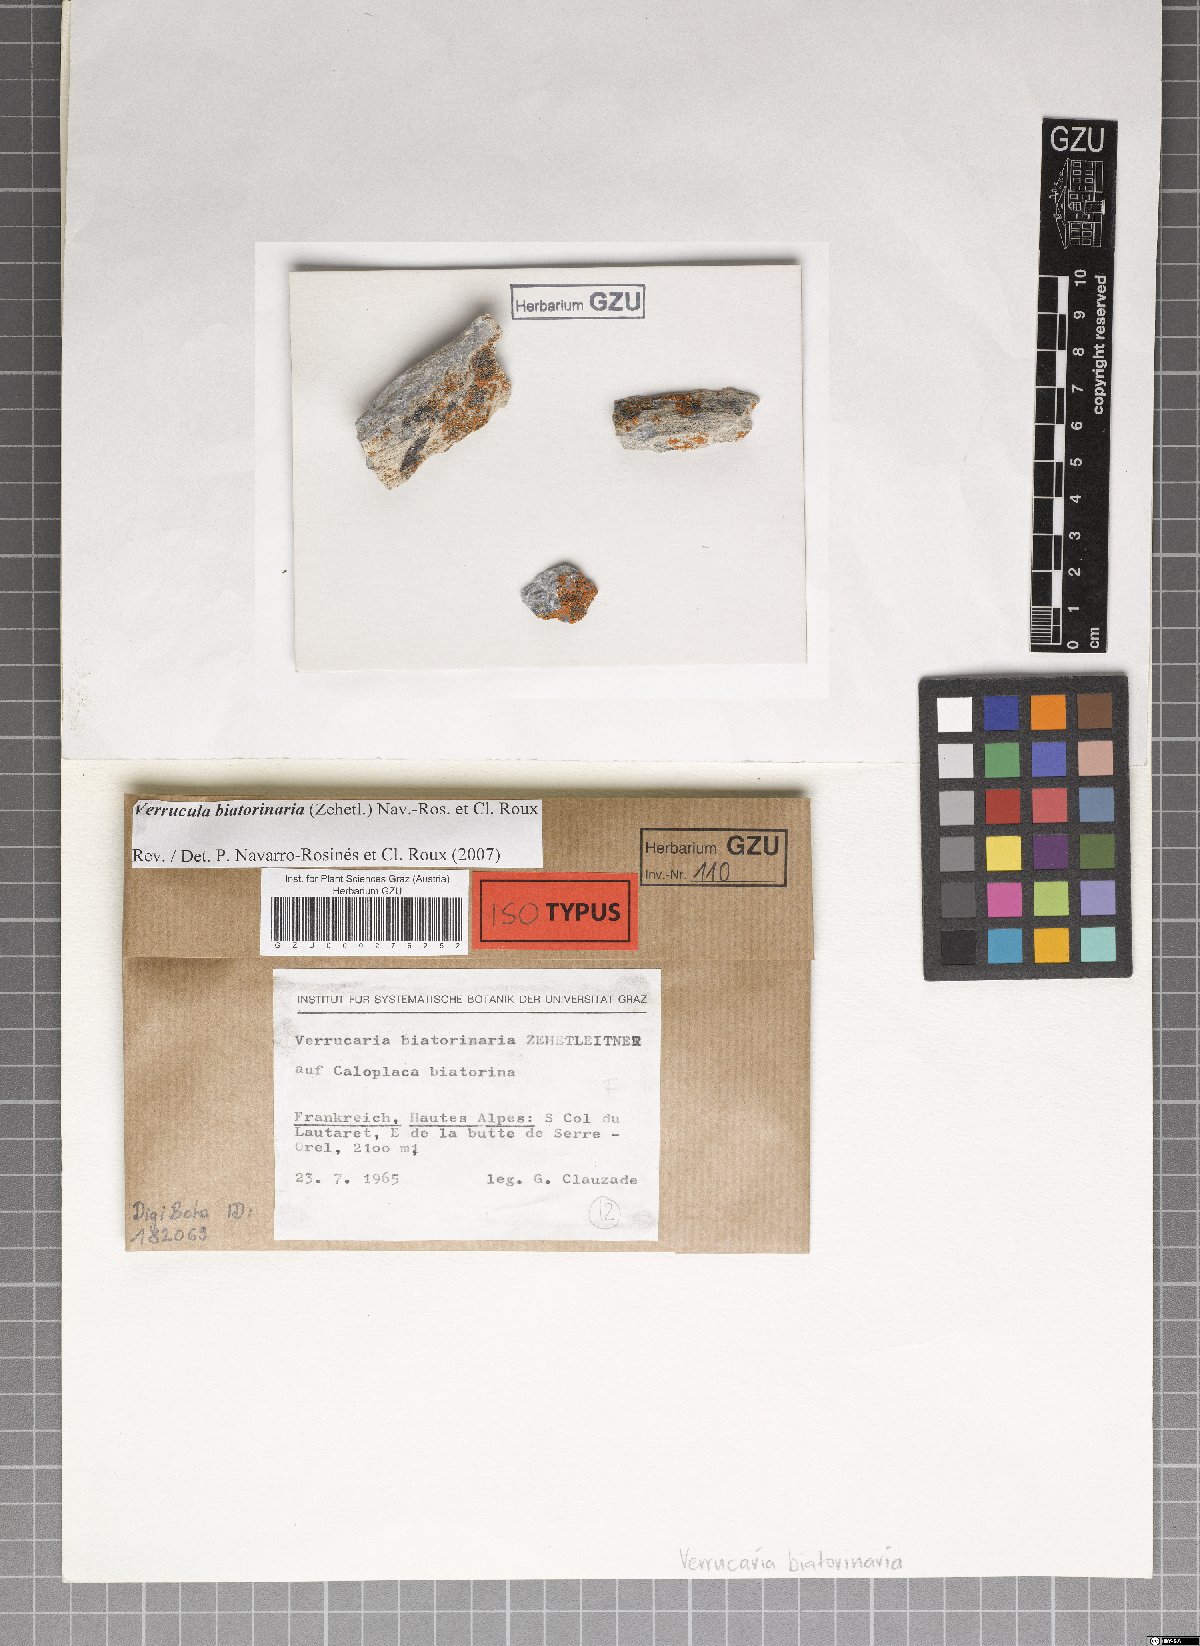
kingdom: Fungi
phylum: Ascomycota
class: Eurotiomycetes
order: Verrucariales
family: Verrucariaceae
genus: Verrucula
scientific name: Verrucula biatorinaria
